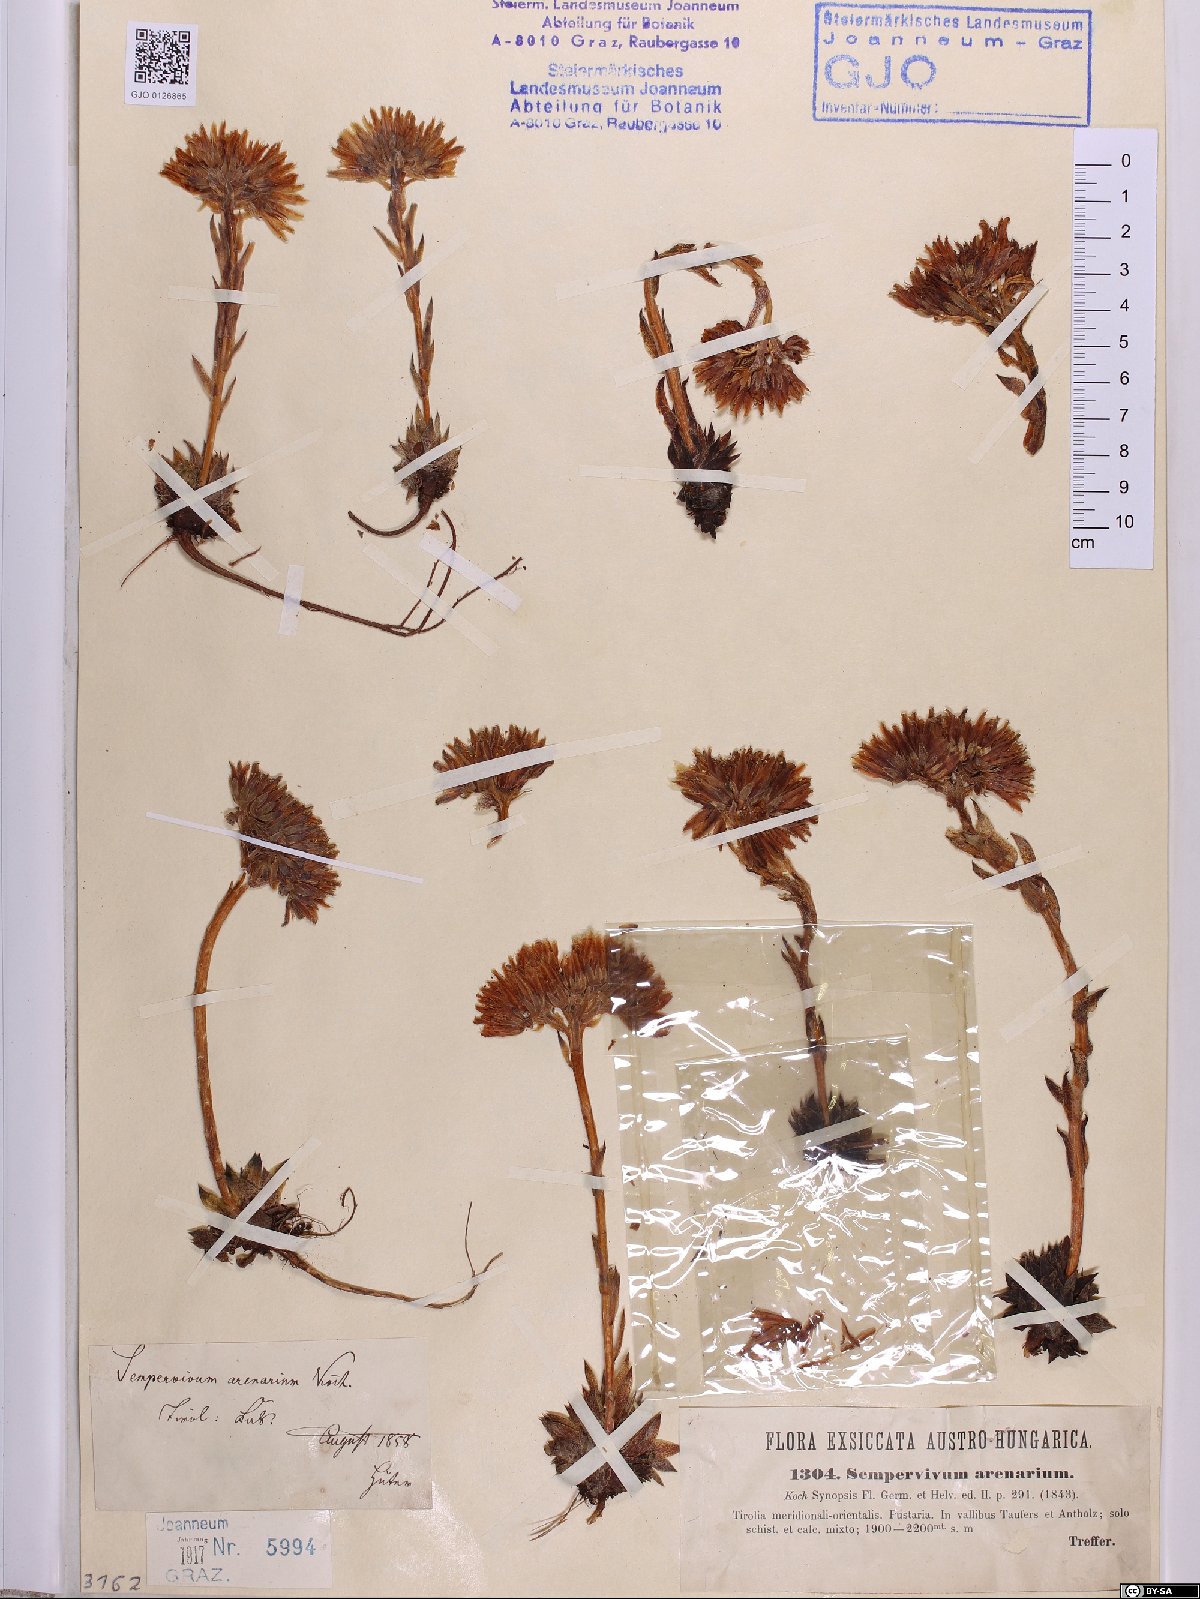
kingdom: Plantae
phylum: Tracheophyta
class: Magnoliopsida
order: Saxifragales
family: Crassulaceae
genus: Sempervivum
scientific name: Sempervivum globiferum
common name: Rolling hen-and-chicks
